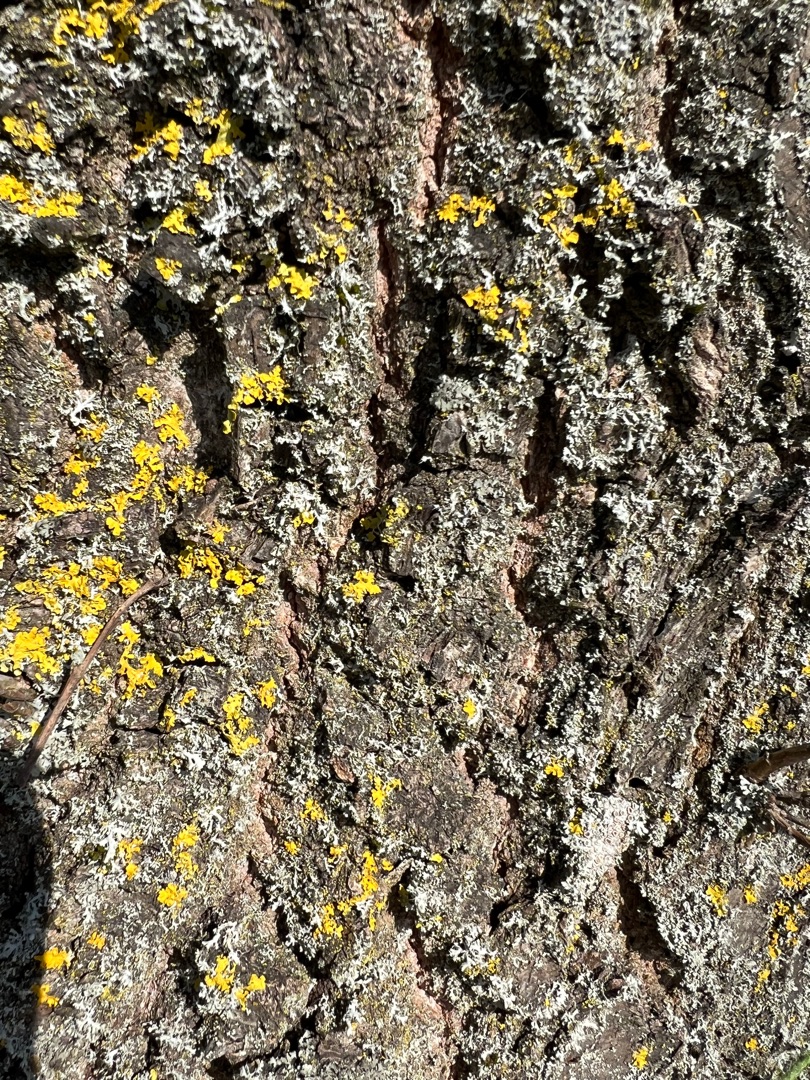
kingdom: Fungi
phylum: Ascomycota
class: Lecanoromycetes
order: Teloschistales
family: Teloschistaceae
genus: Xanthoria
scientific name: Xanthoria parietina
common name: Almindelig væggelav
